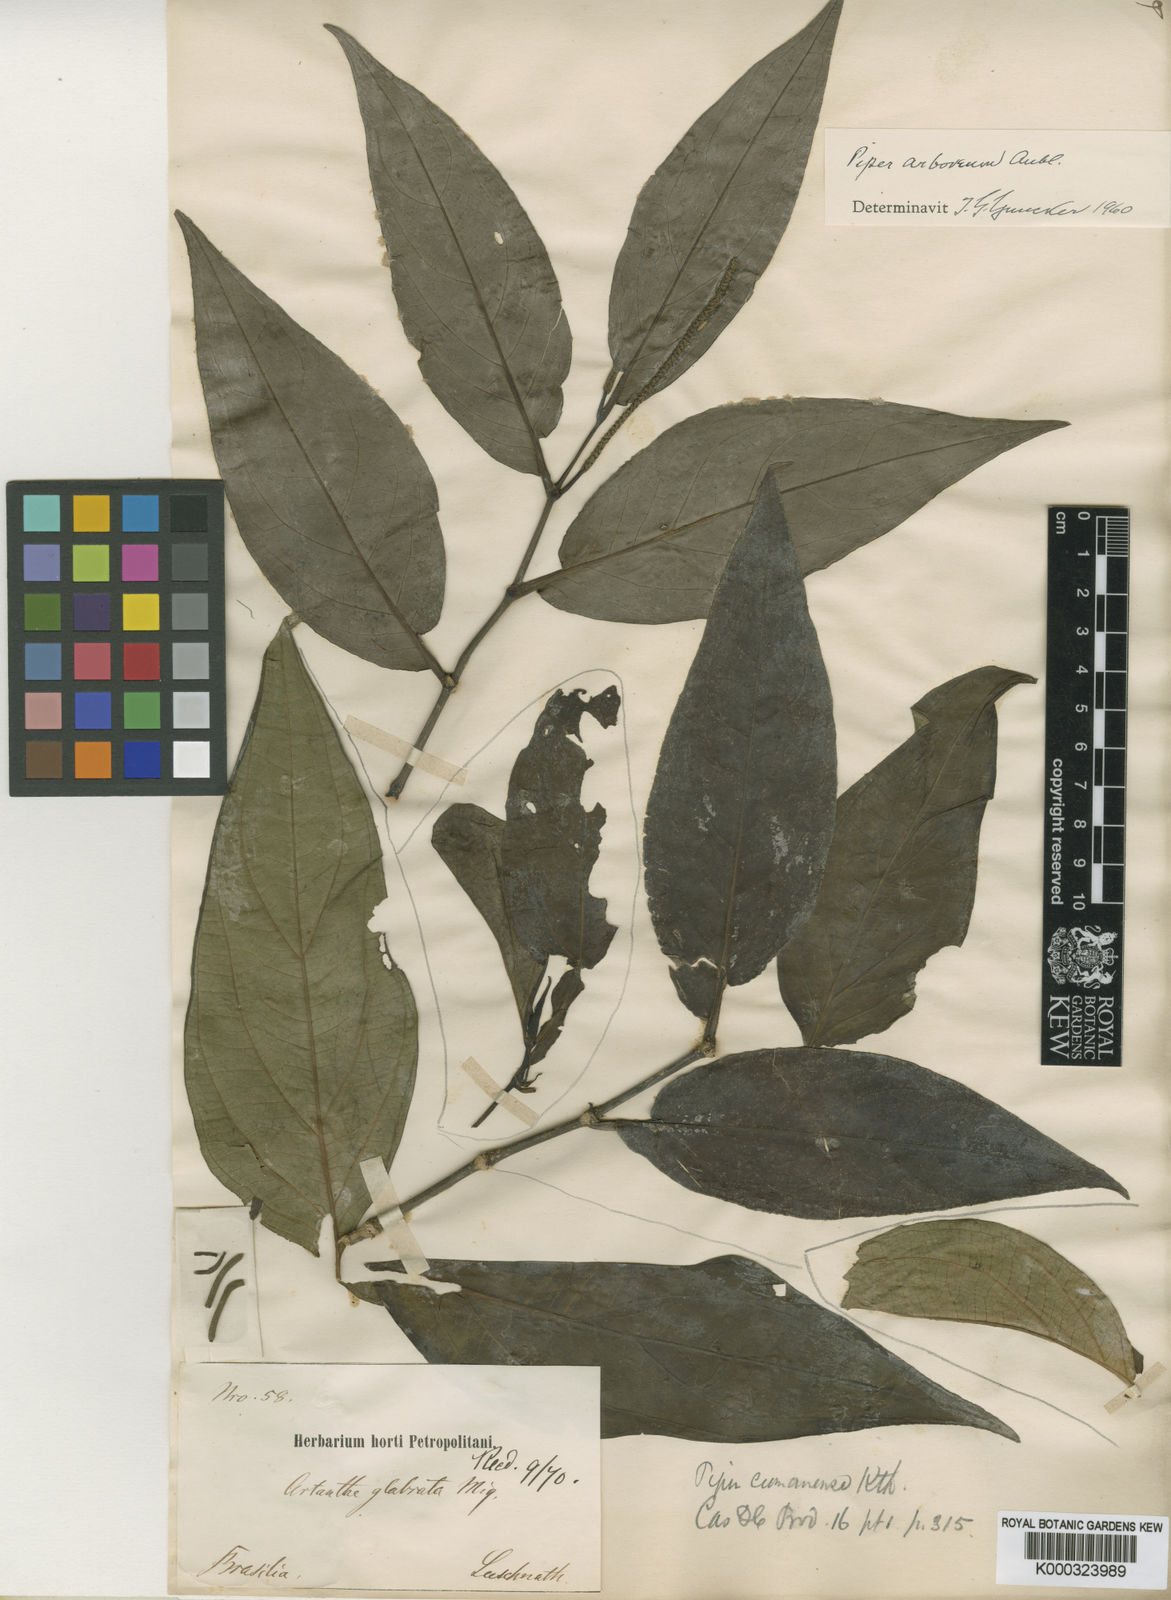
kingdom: Plantae
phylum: Tracheophyta
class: Magnoliopsida
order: Piperales
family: Piperaceae
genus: Piper
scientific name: Piper secundum
